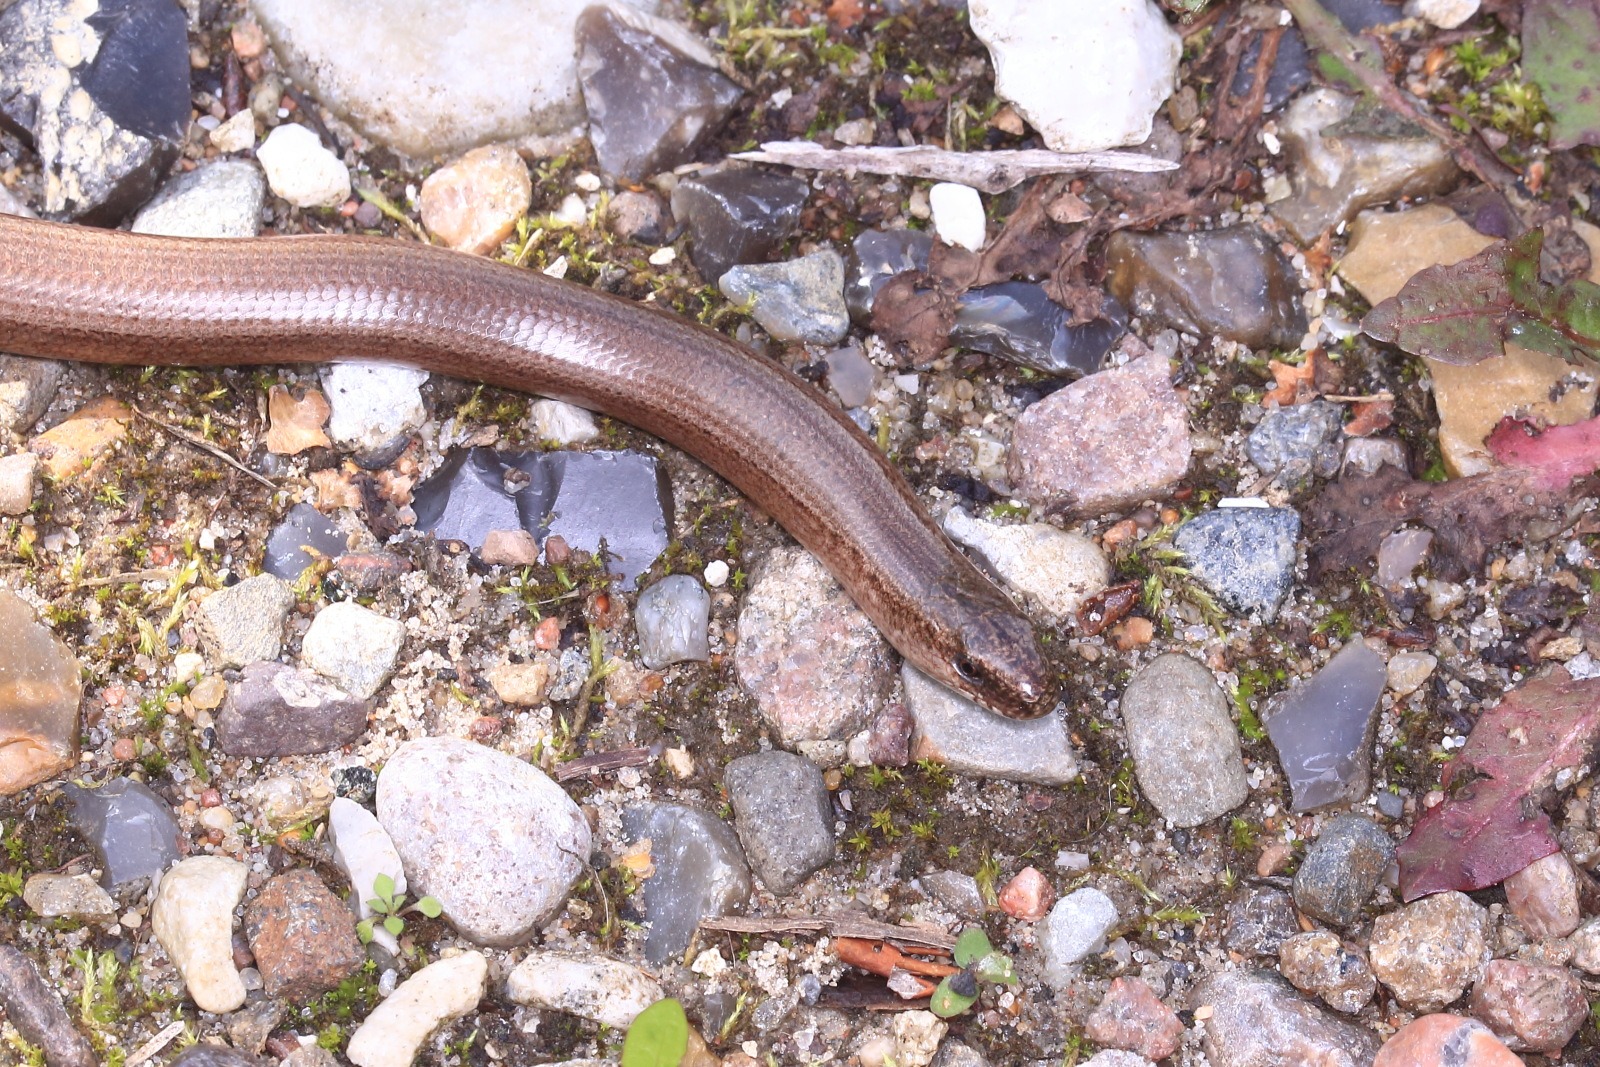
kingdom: Animalia
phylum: Chordata
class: Squamata
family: Anguidae
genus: Anguis
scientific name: Anguis fragilis
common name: Stålorm
